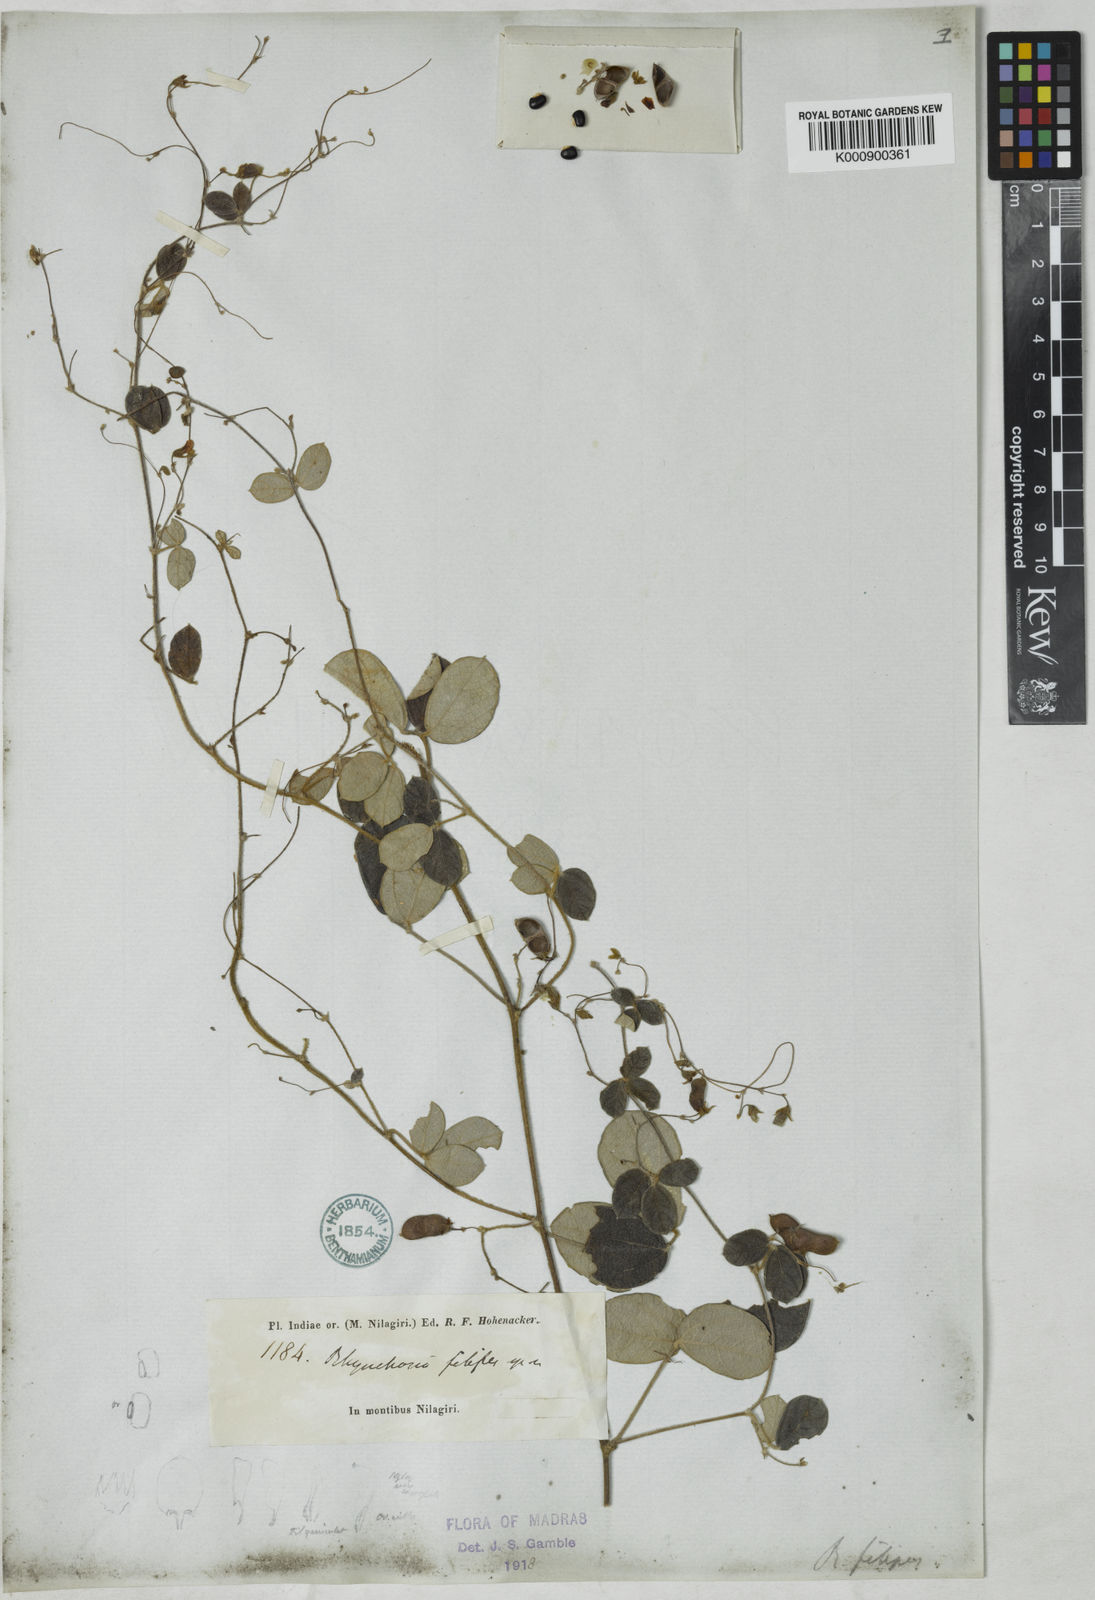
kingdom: Plantae
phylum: Tracheophyta
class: Magnoliopsida
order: Fabales
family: Fabaceae
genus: Rhynchosia
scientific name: Rhynchosia filipes
